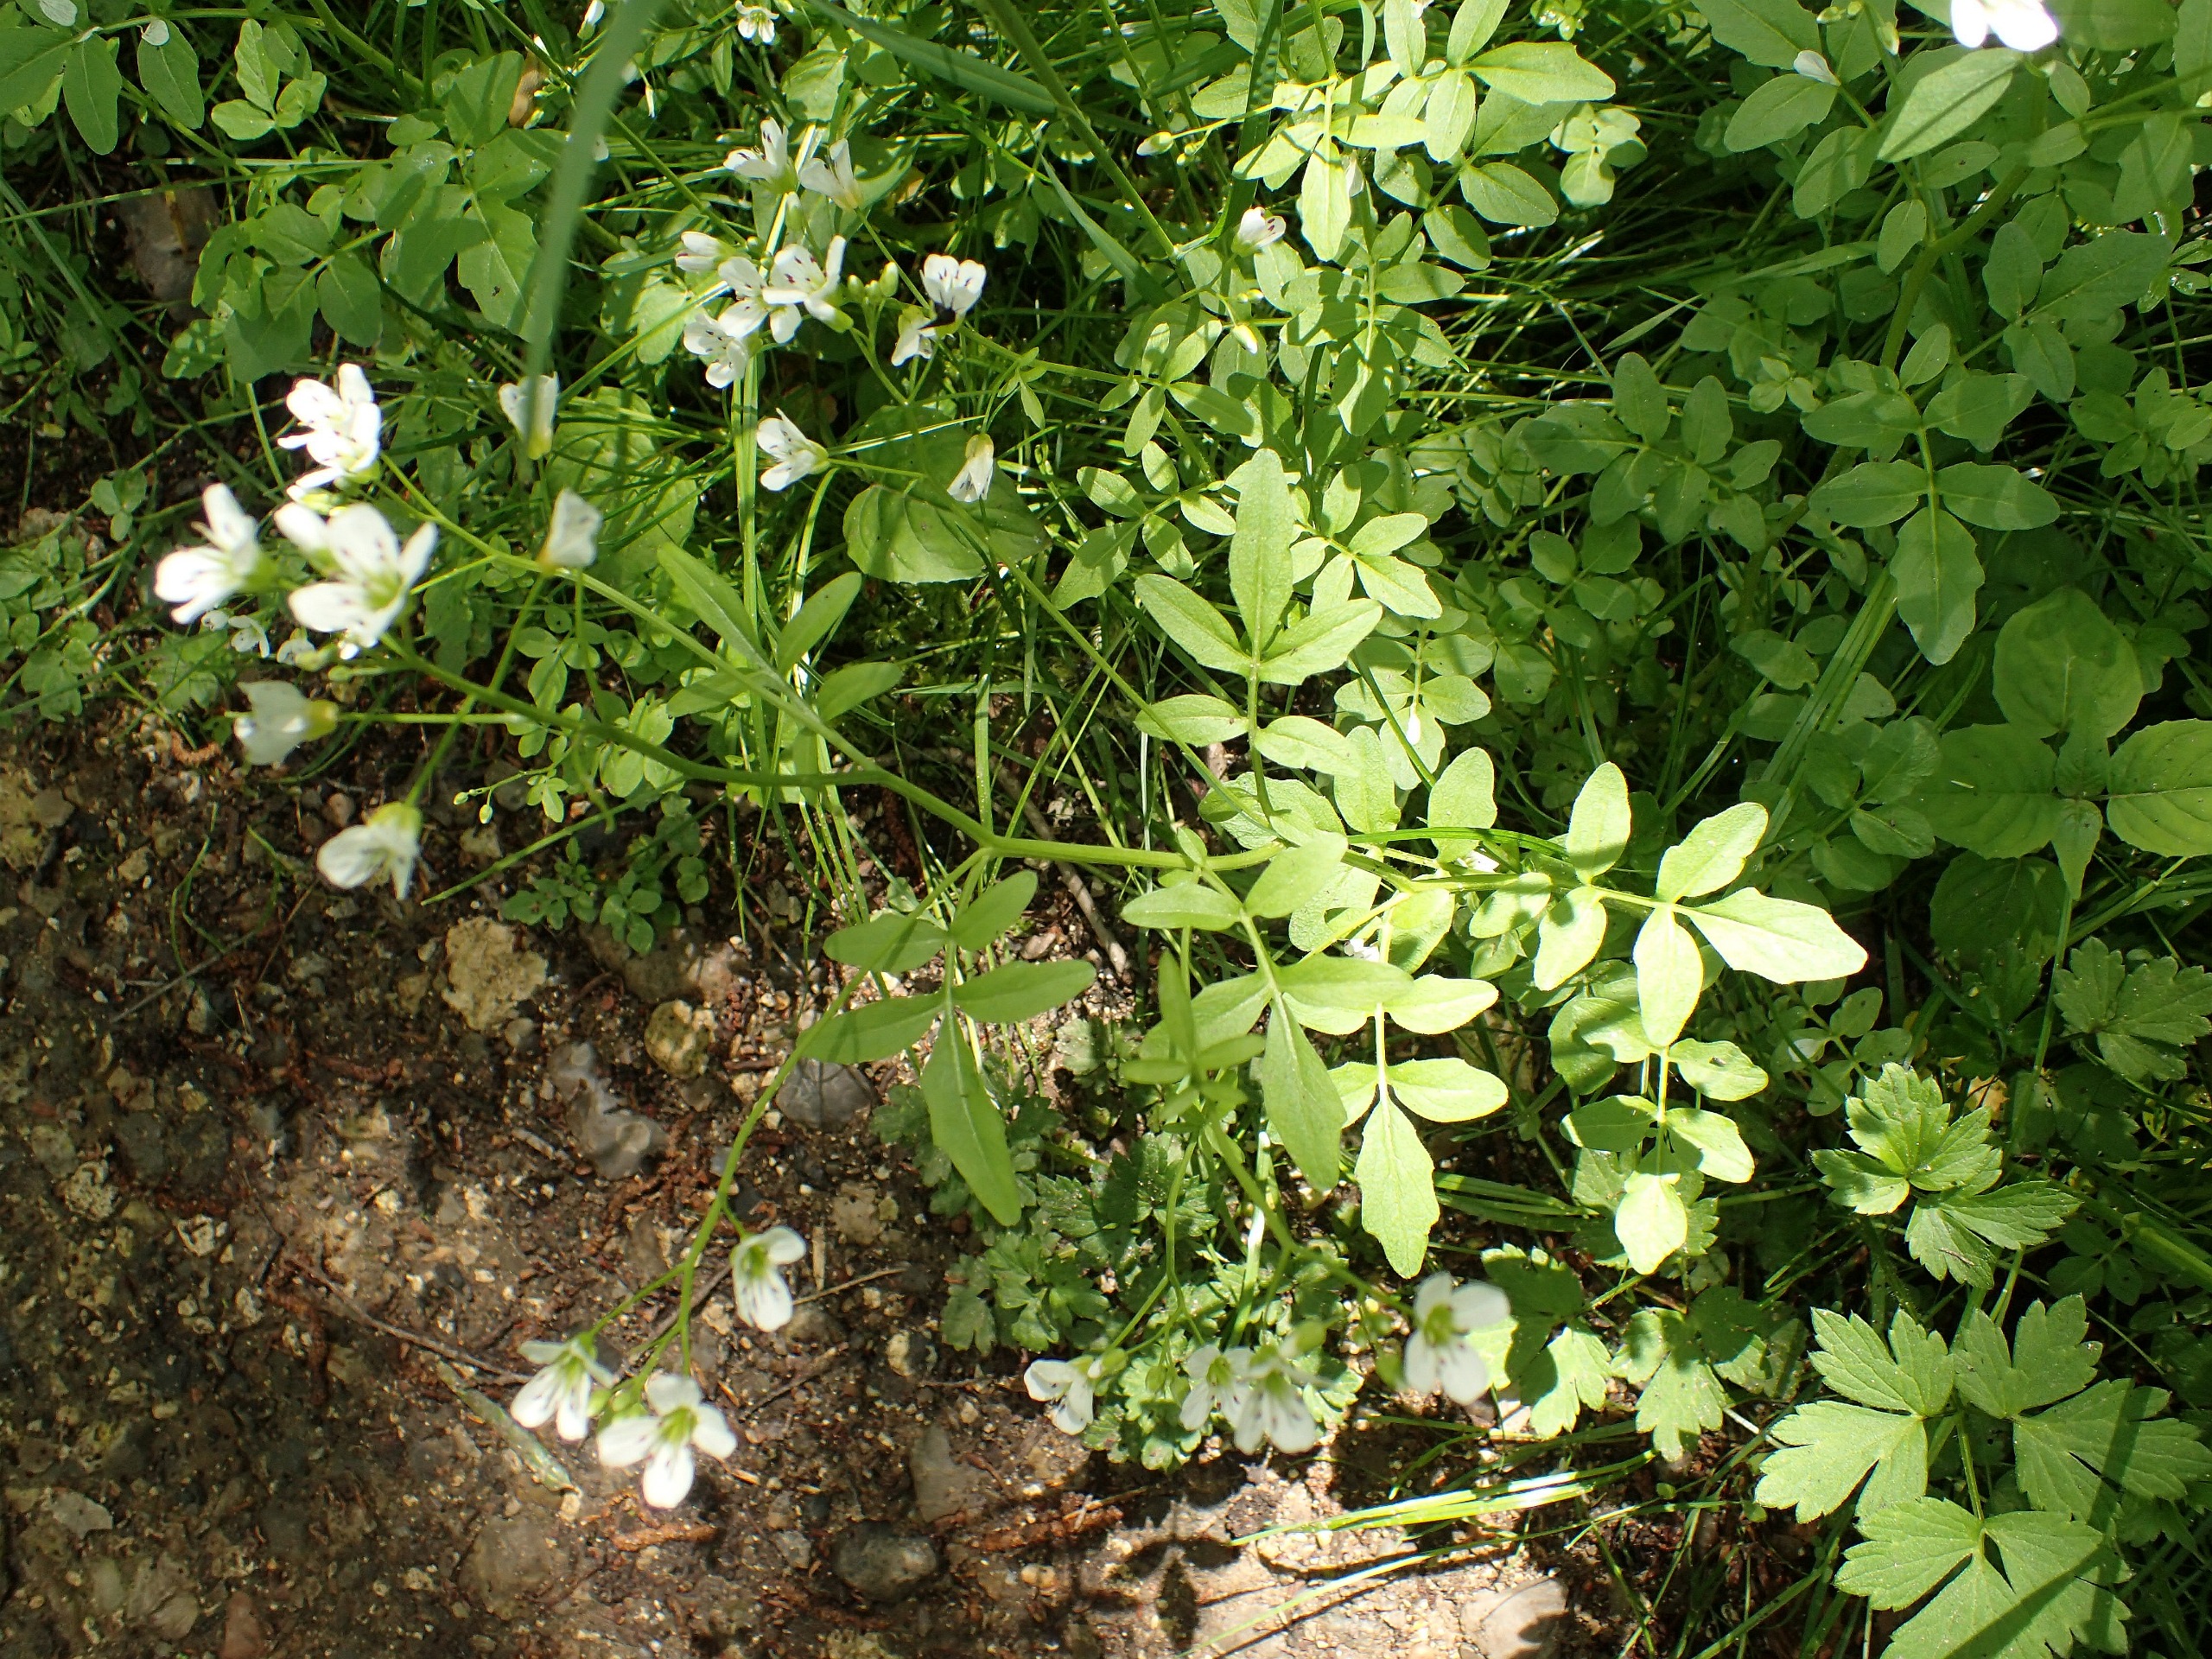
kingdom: Plantae
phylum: Tracheophyta
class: Magnoliopsida
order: Brassicales
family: Brassicaceae
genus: Cardamine
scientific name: Cardamine amara
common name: Vandkarse
